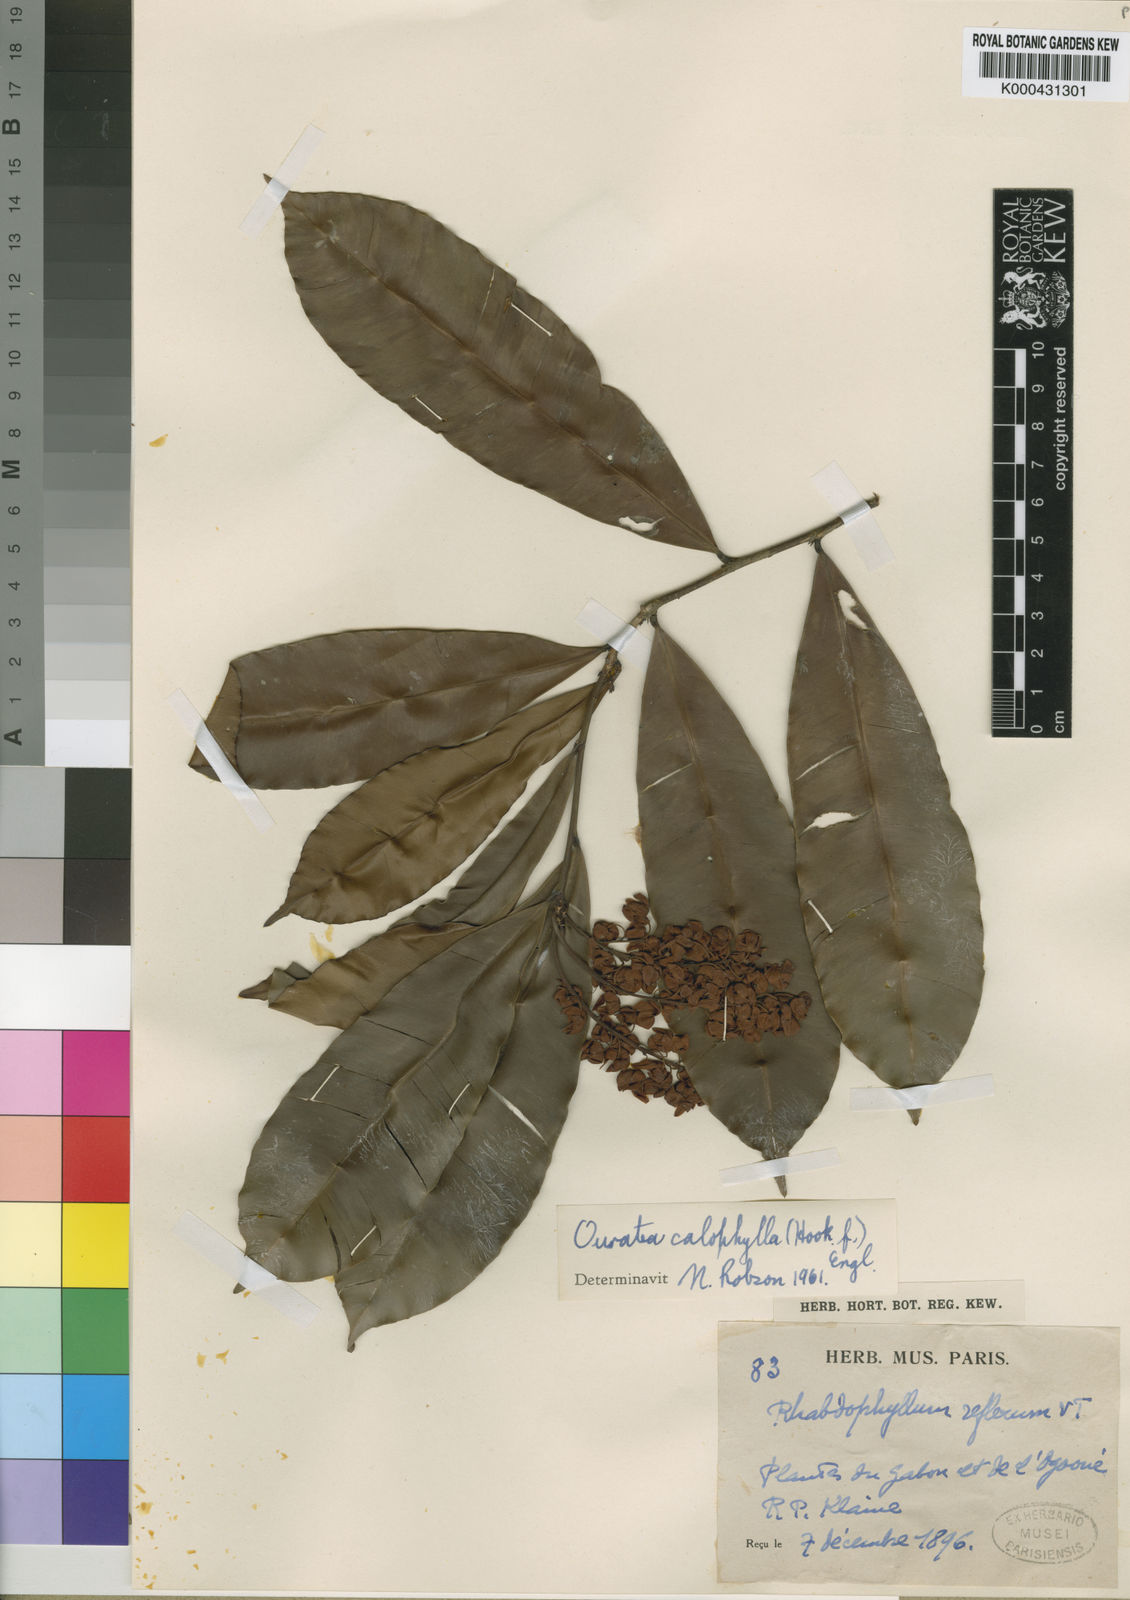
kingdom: Plantae
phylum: Tracheophyta
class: Magnoliopsida
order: Malpighiales
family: Ochnaceae
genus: Rhabdophyllum
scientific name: Rhabdophyllum calophyllum
